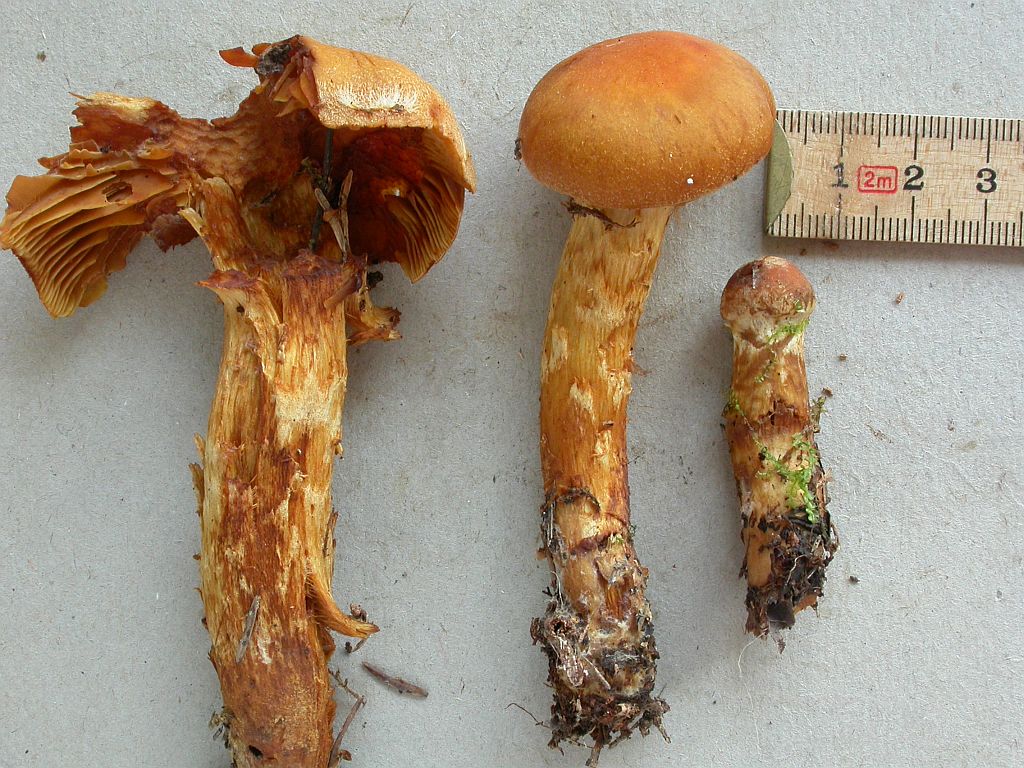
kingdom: Fungi
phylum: Basidiomycota
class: Agaricomycetes
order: Agaricales
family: Cortinariaceae
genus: Aureonarius
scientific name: Aureonarius limonius
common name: orangegul slørhat
